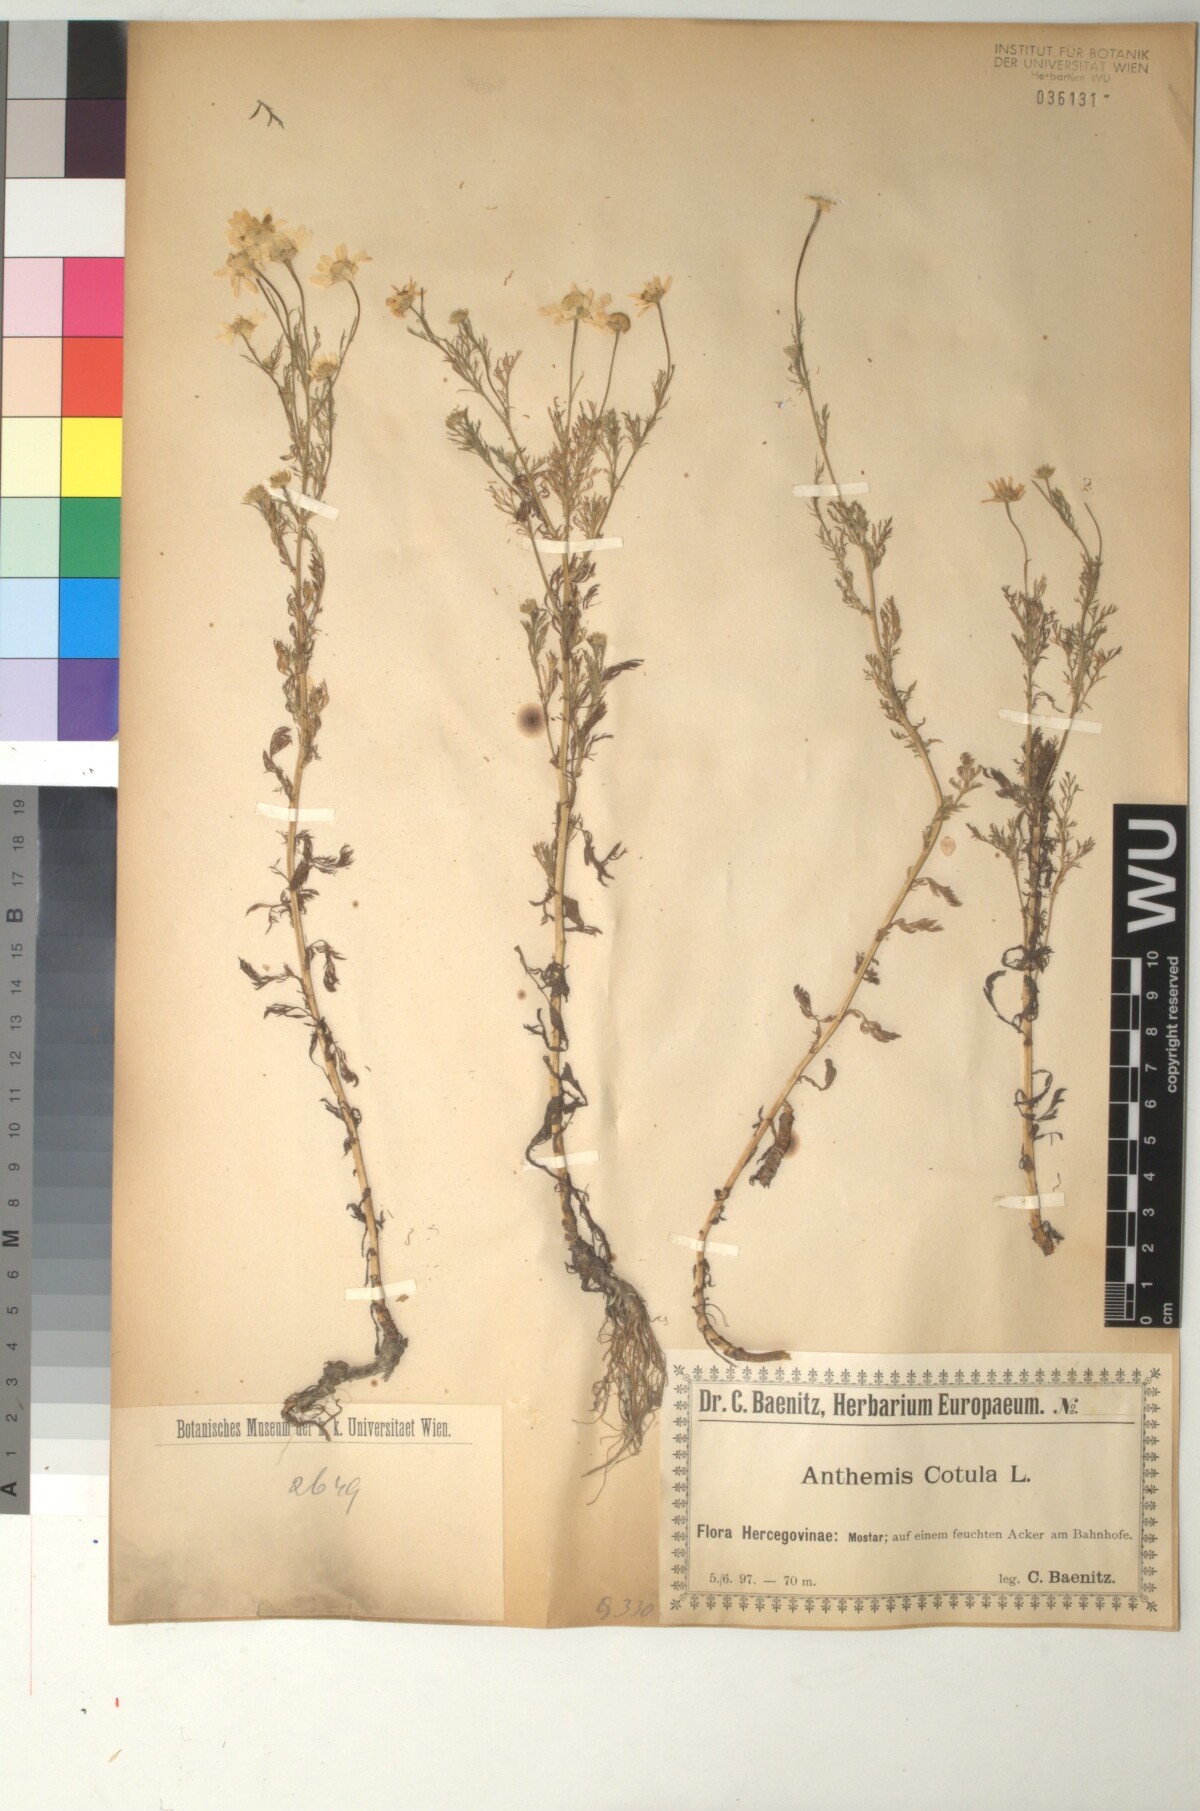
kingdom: Plantae
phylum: Tracheophyta
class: Magnoliopsida
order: Asterales
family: Asteraceae
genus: Anthemis
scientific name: Anthemis cotula
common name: Stinking chamomile
